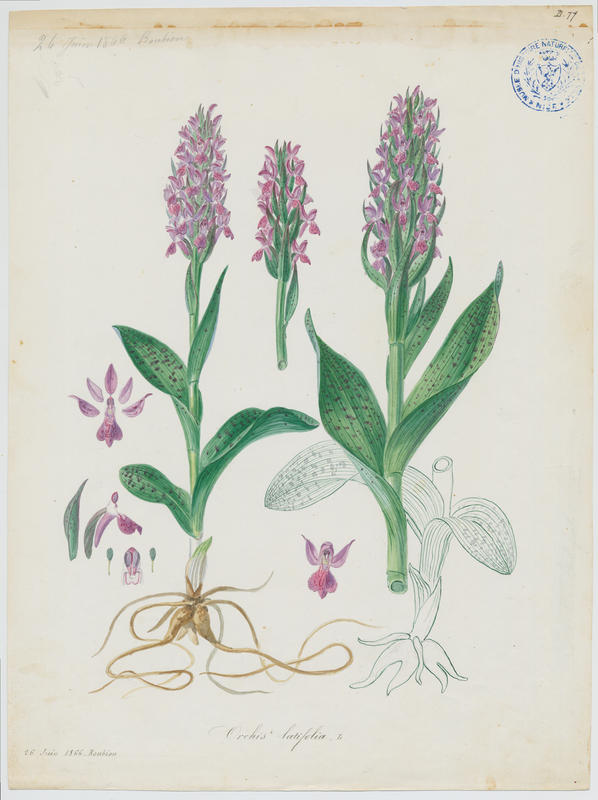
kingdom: Plantae
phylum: Tracheophyta
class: Liliopsida
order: Asparagales
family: Orchidaceae
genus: Dactylorhiza
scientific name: Dactylorhiza sambucina
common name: Elder-flowered orchid
